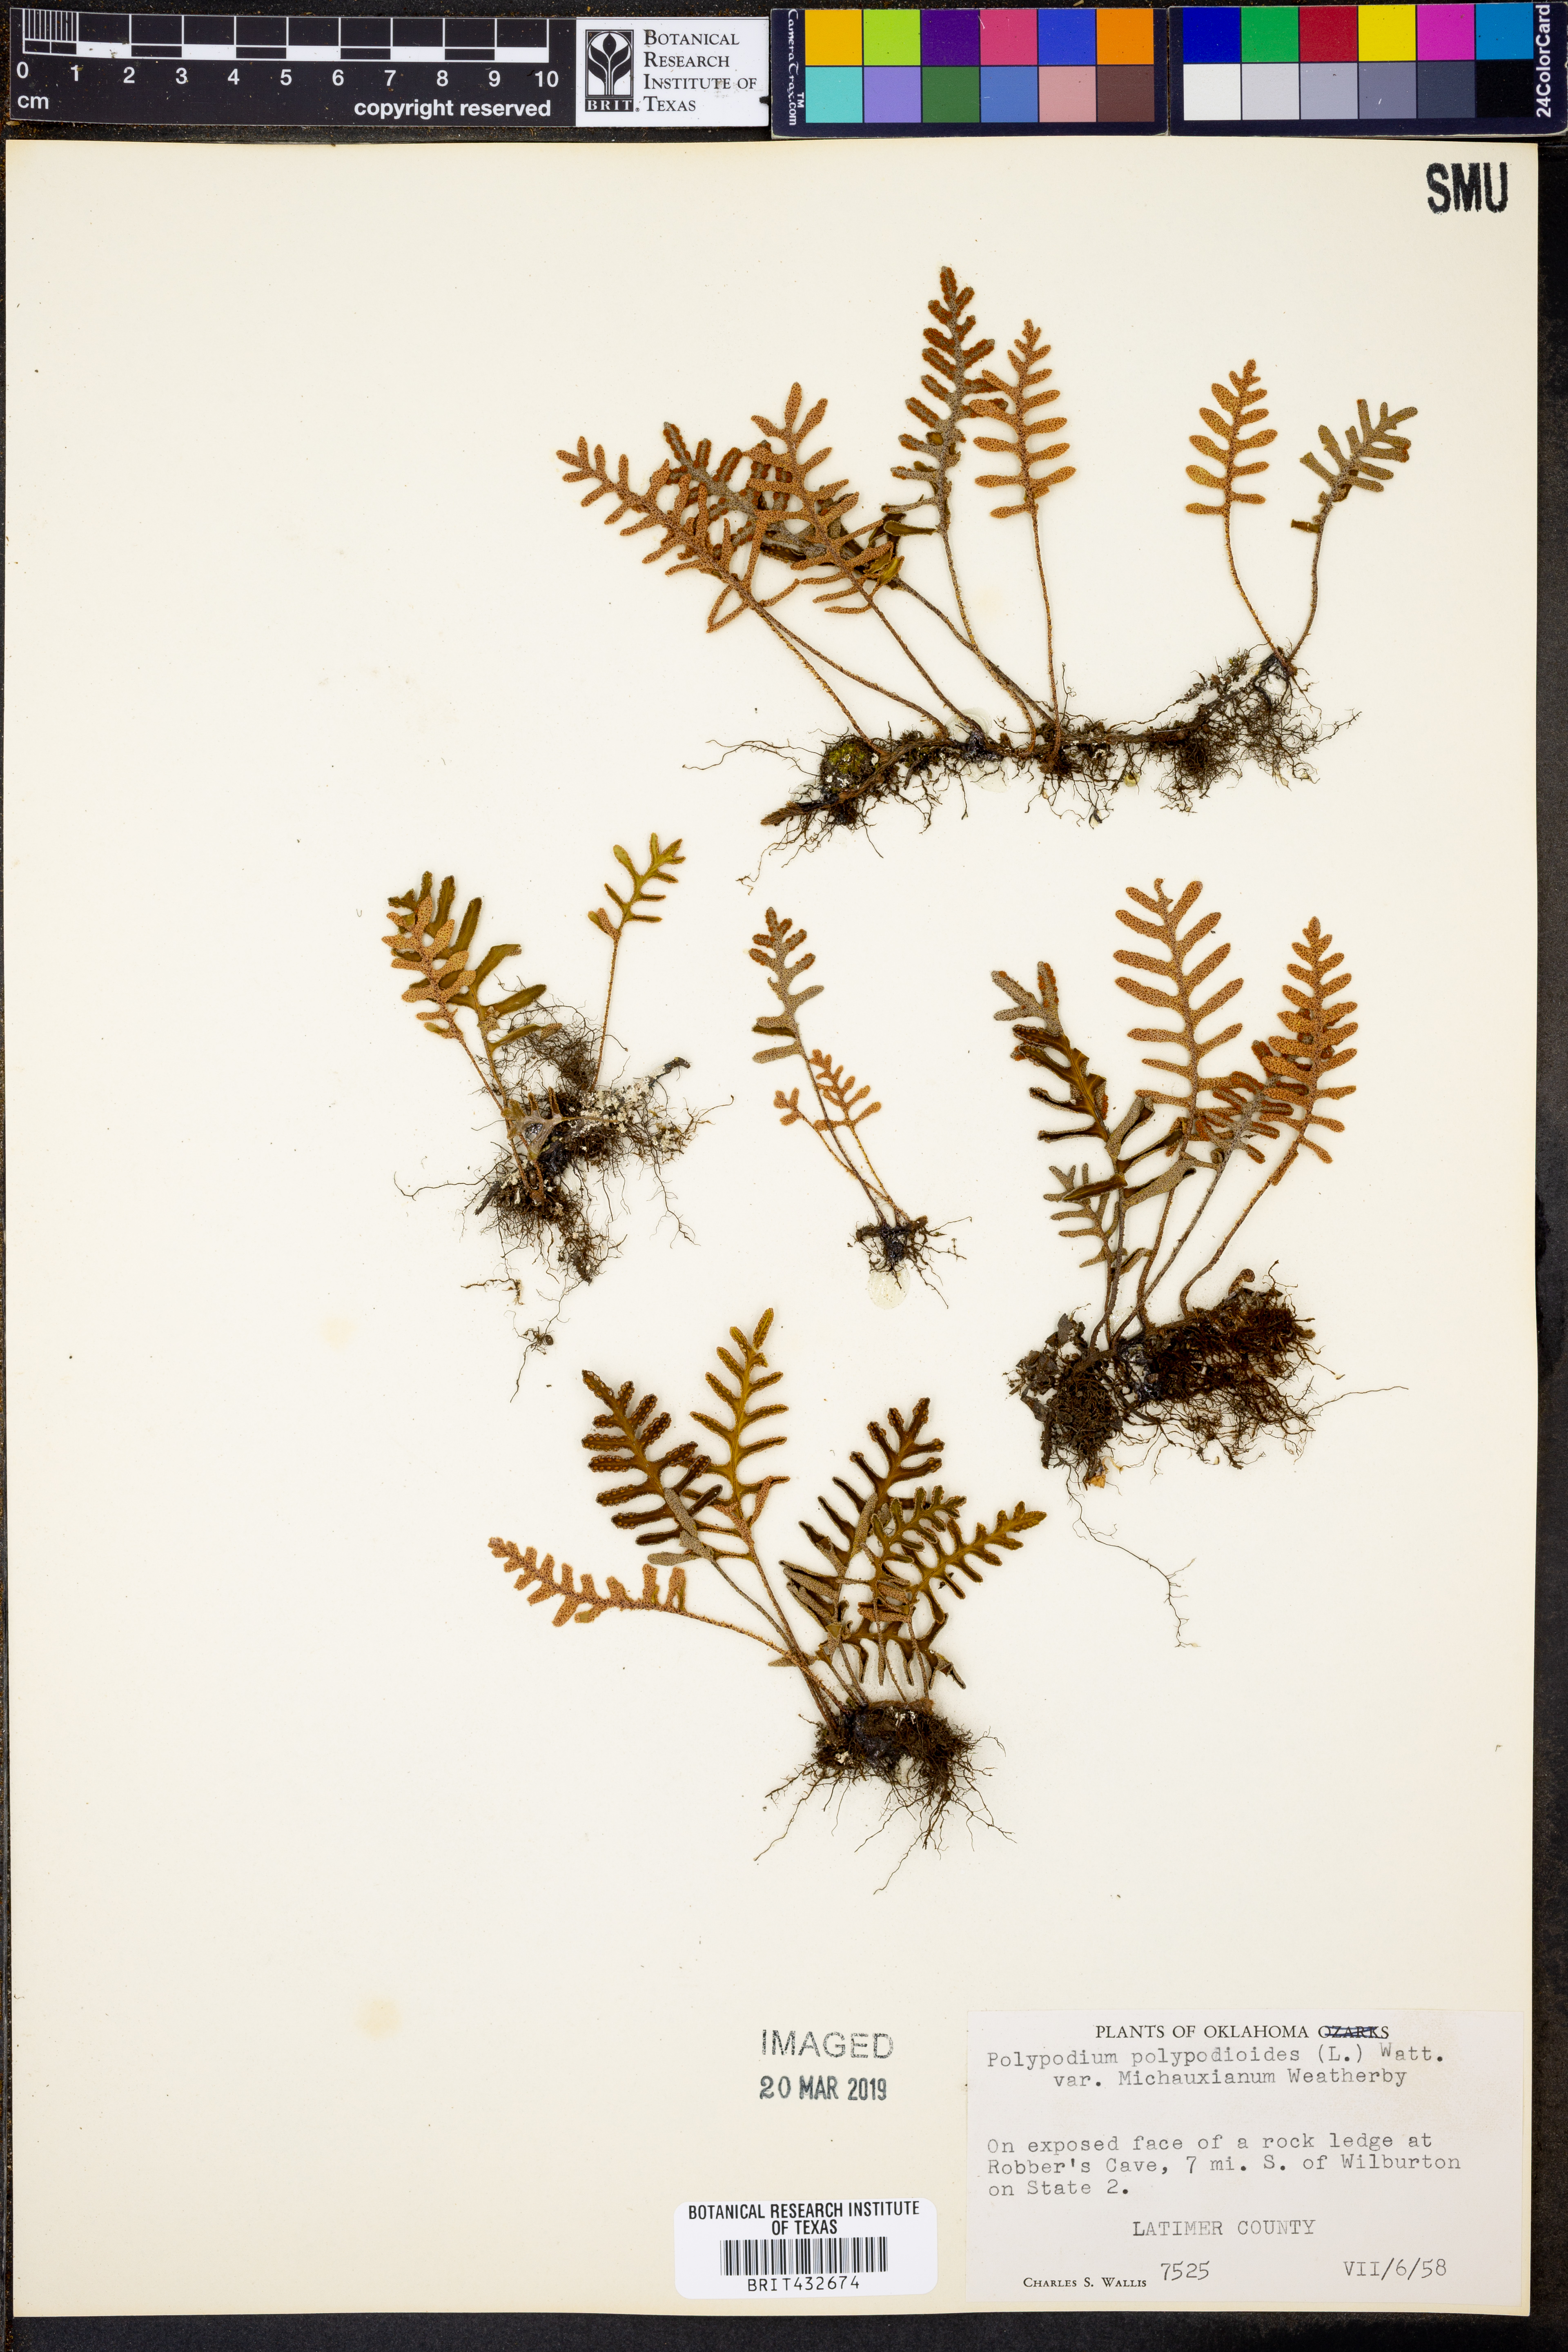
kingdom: Plantae
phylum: Tracheophyta
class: Polypodiopsida
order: Polypodiales
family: Polypodiaceae
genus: Pleopeltis
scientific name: Pleopeltis michauxiana
